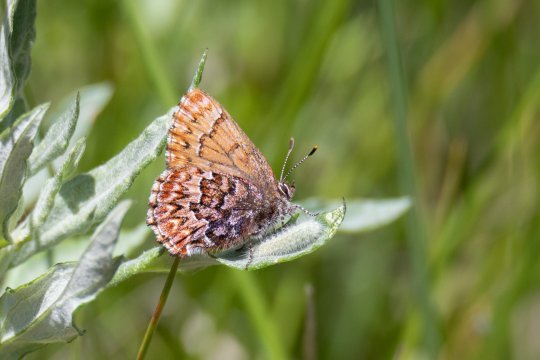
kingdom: Animalia
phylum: Arthropoda
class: Insecta
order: Lepidoptera
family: Lycaenidae
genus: Incisalia
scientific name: Incisalia eryphon
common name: Western Pine Elfin
